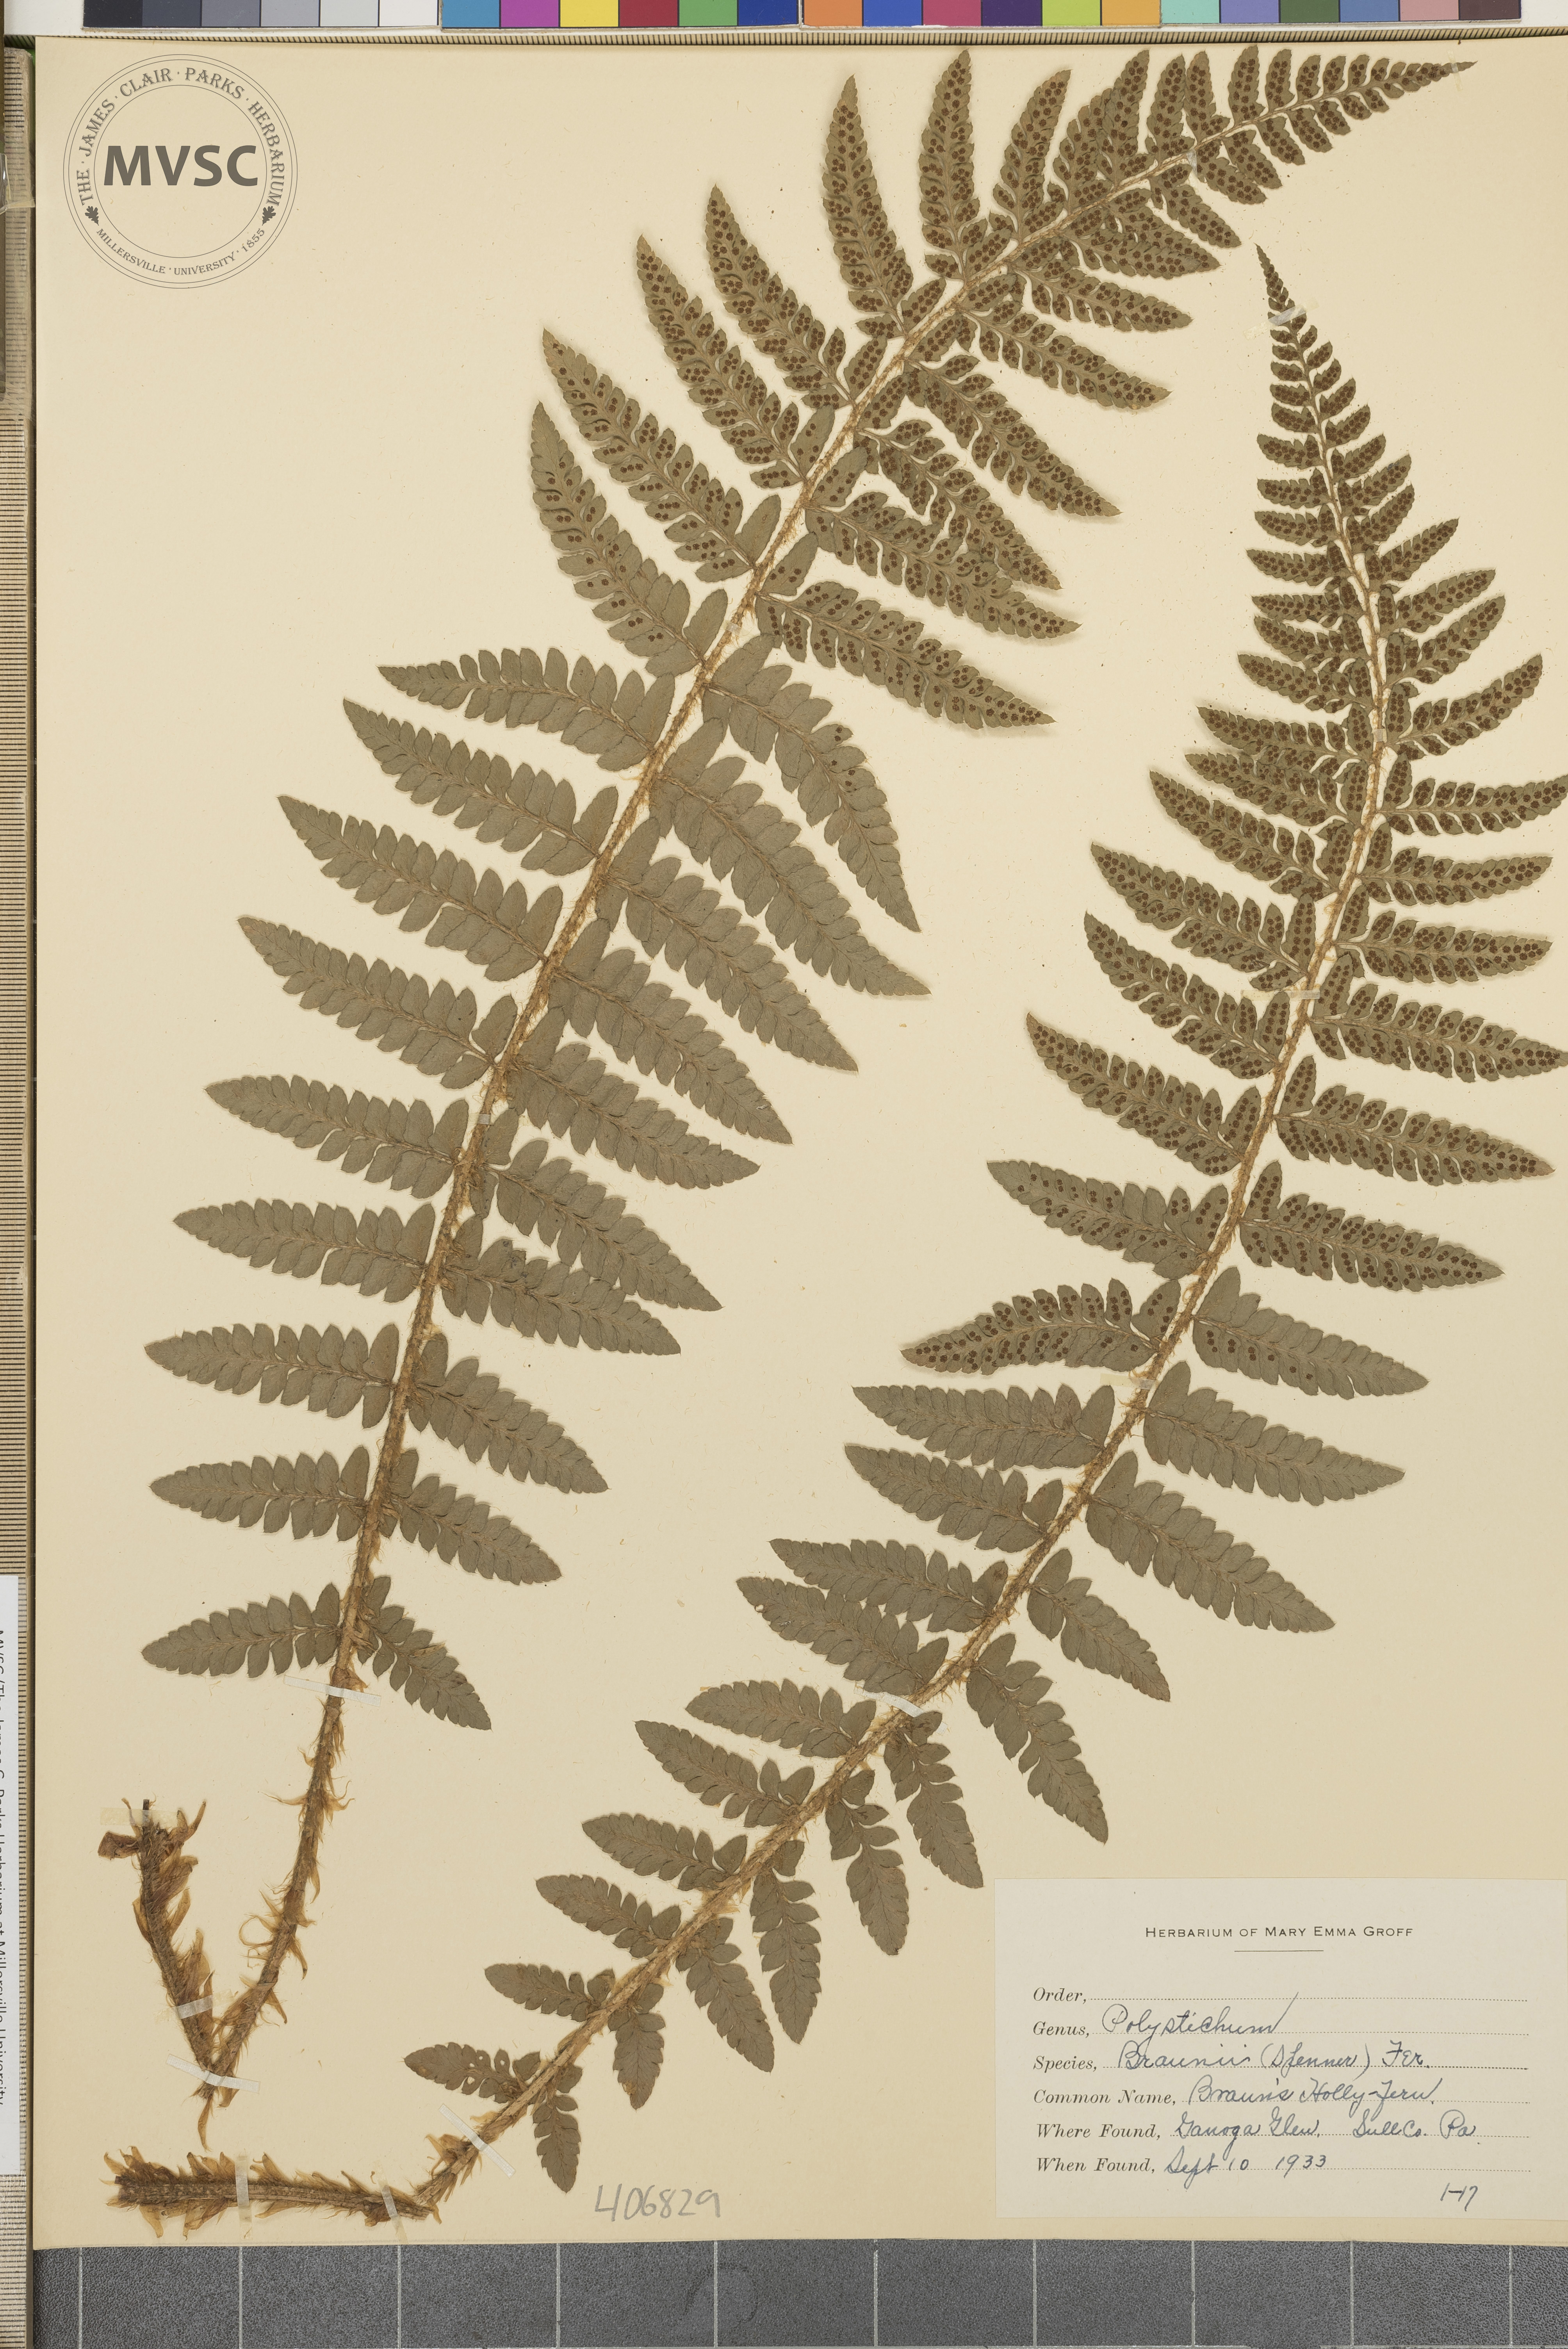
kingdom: Plantae
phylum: Tracheophyta
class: Polypodiopsida
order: Polypodiales
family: Dryopteridaceae
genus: Polystichum
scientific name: Polystichum braunii
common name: Braun's holly fern
